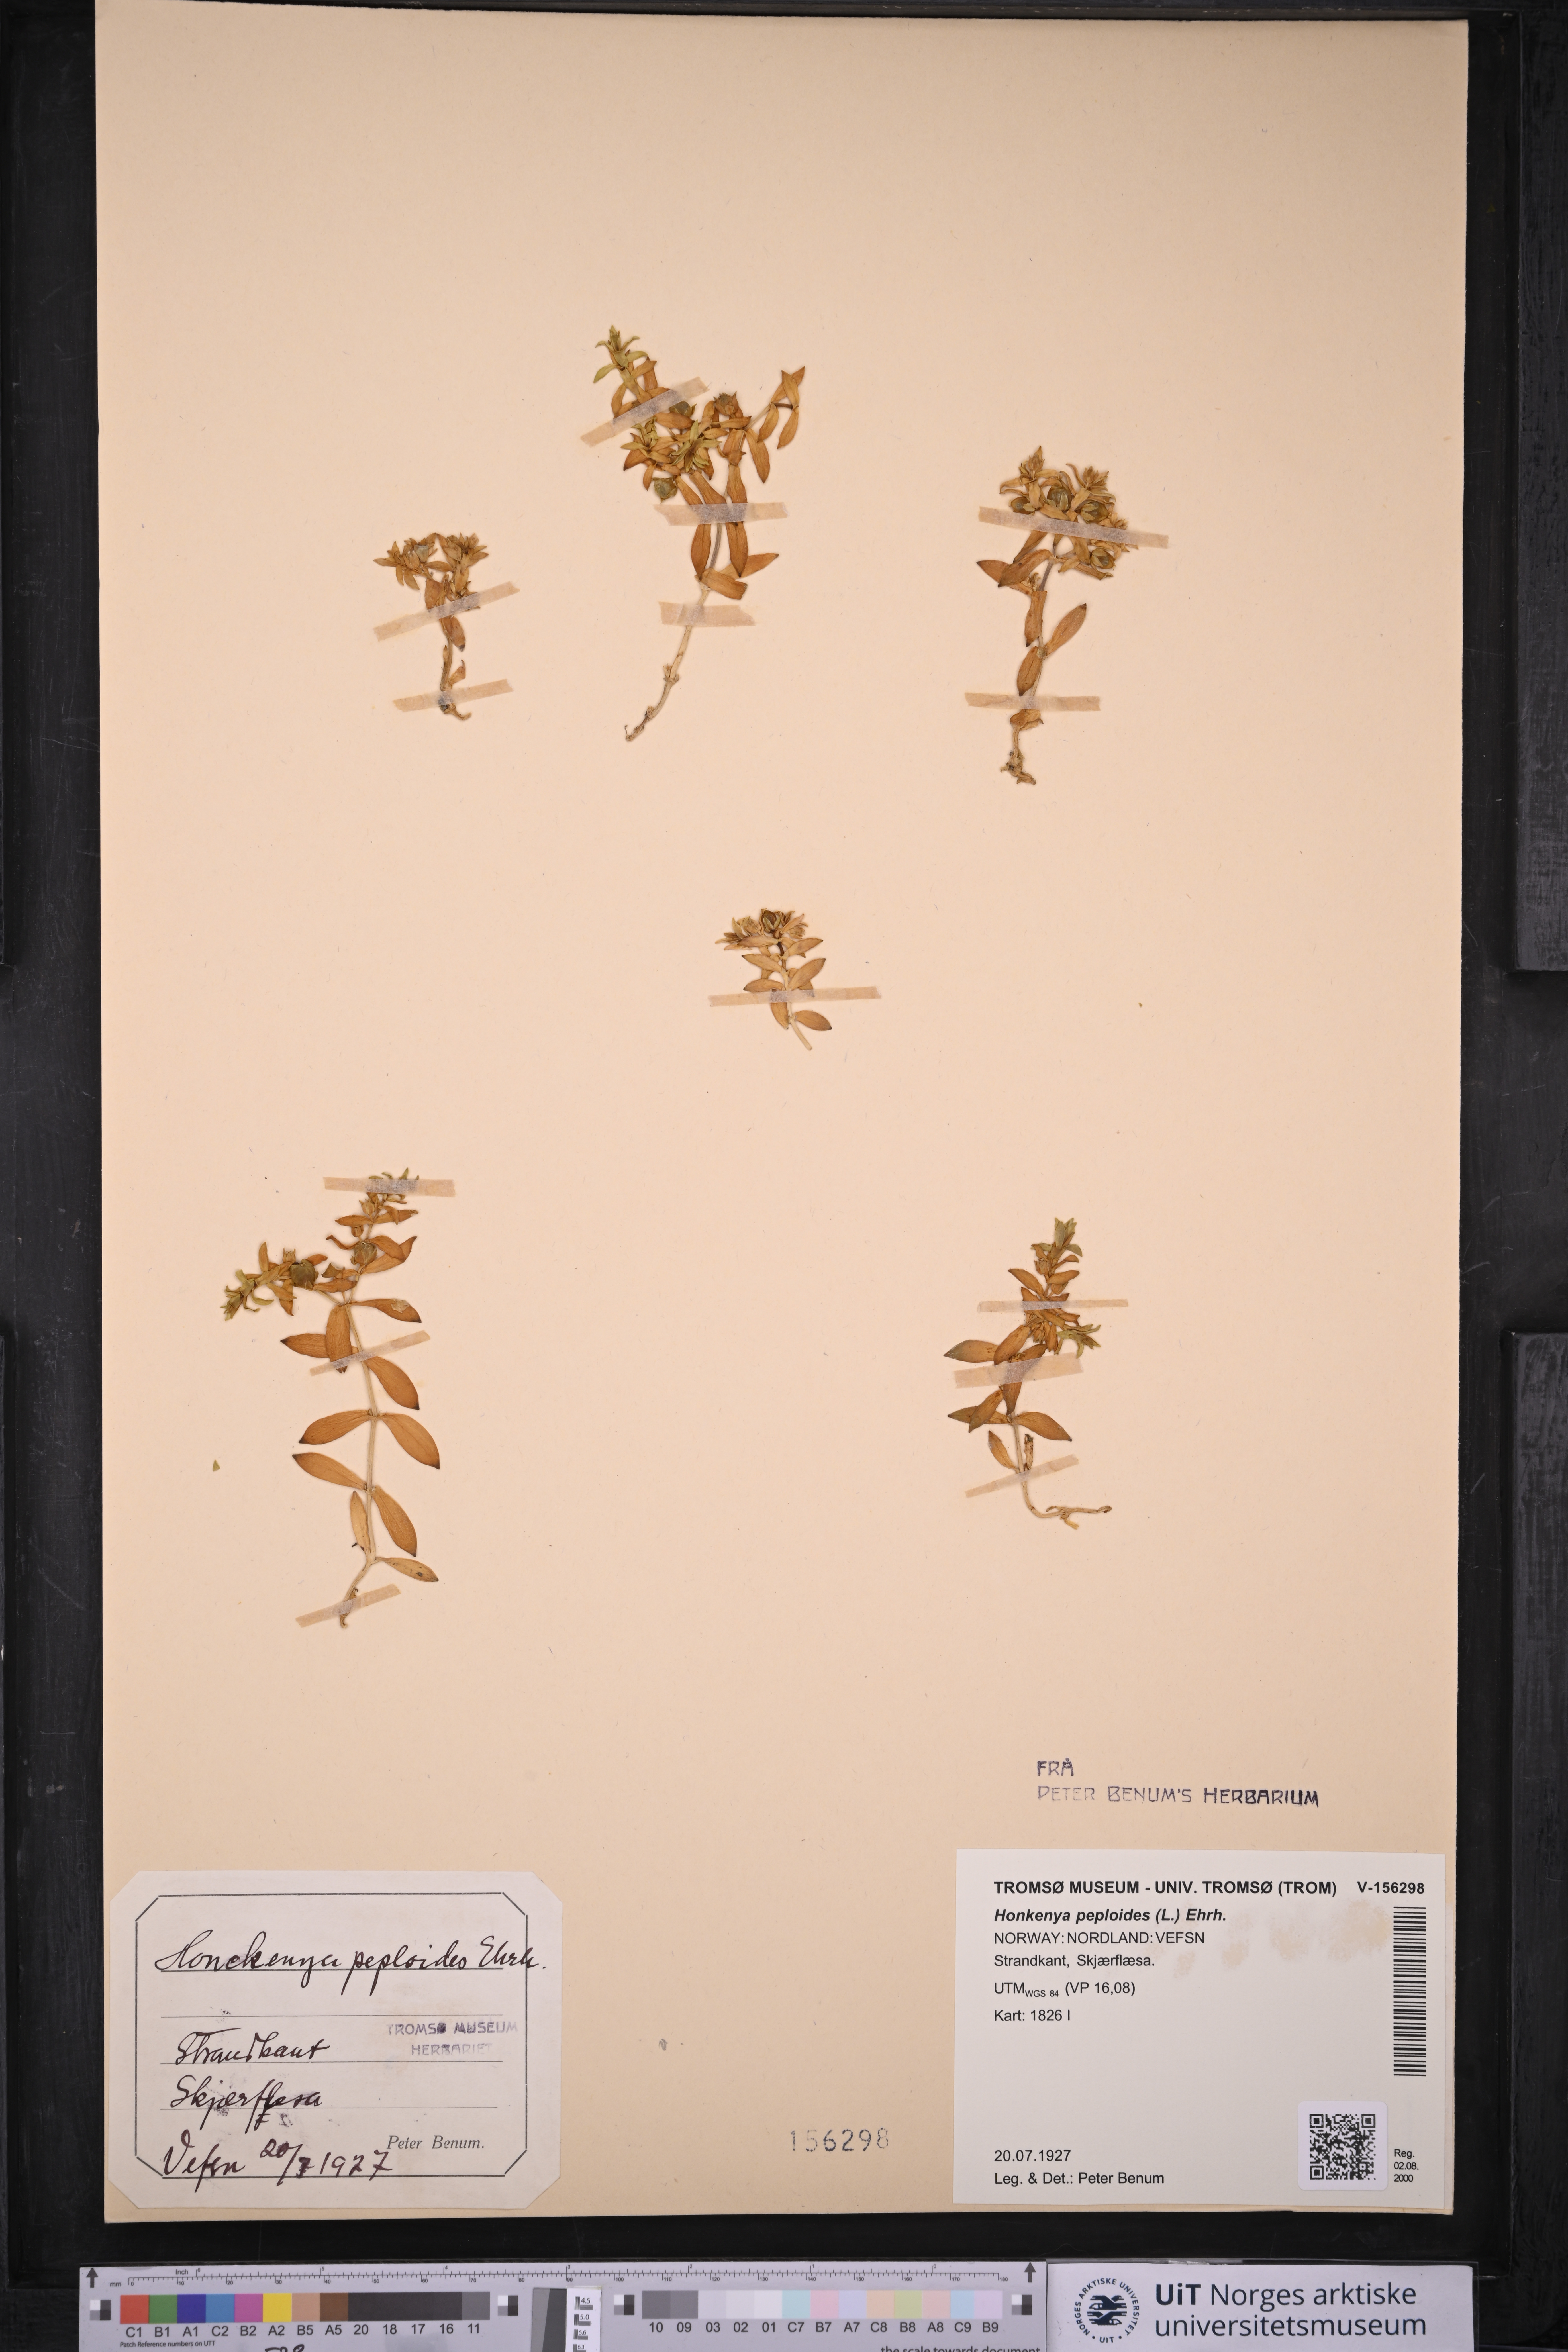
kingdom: Plantae
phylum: Tracheophyta
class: Magnoliopsida
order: Caryophyllales
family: Caryophyllaceae
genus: Honckenya
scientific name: Honckenya peploides
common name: Sea sandwort
